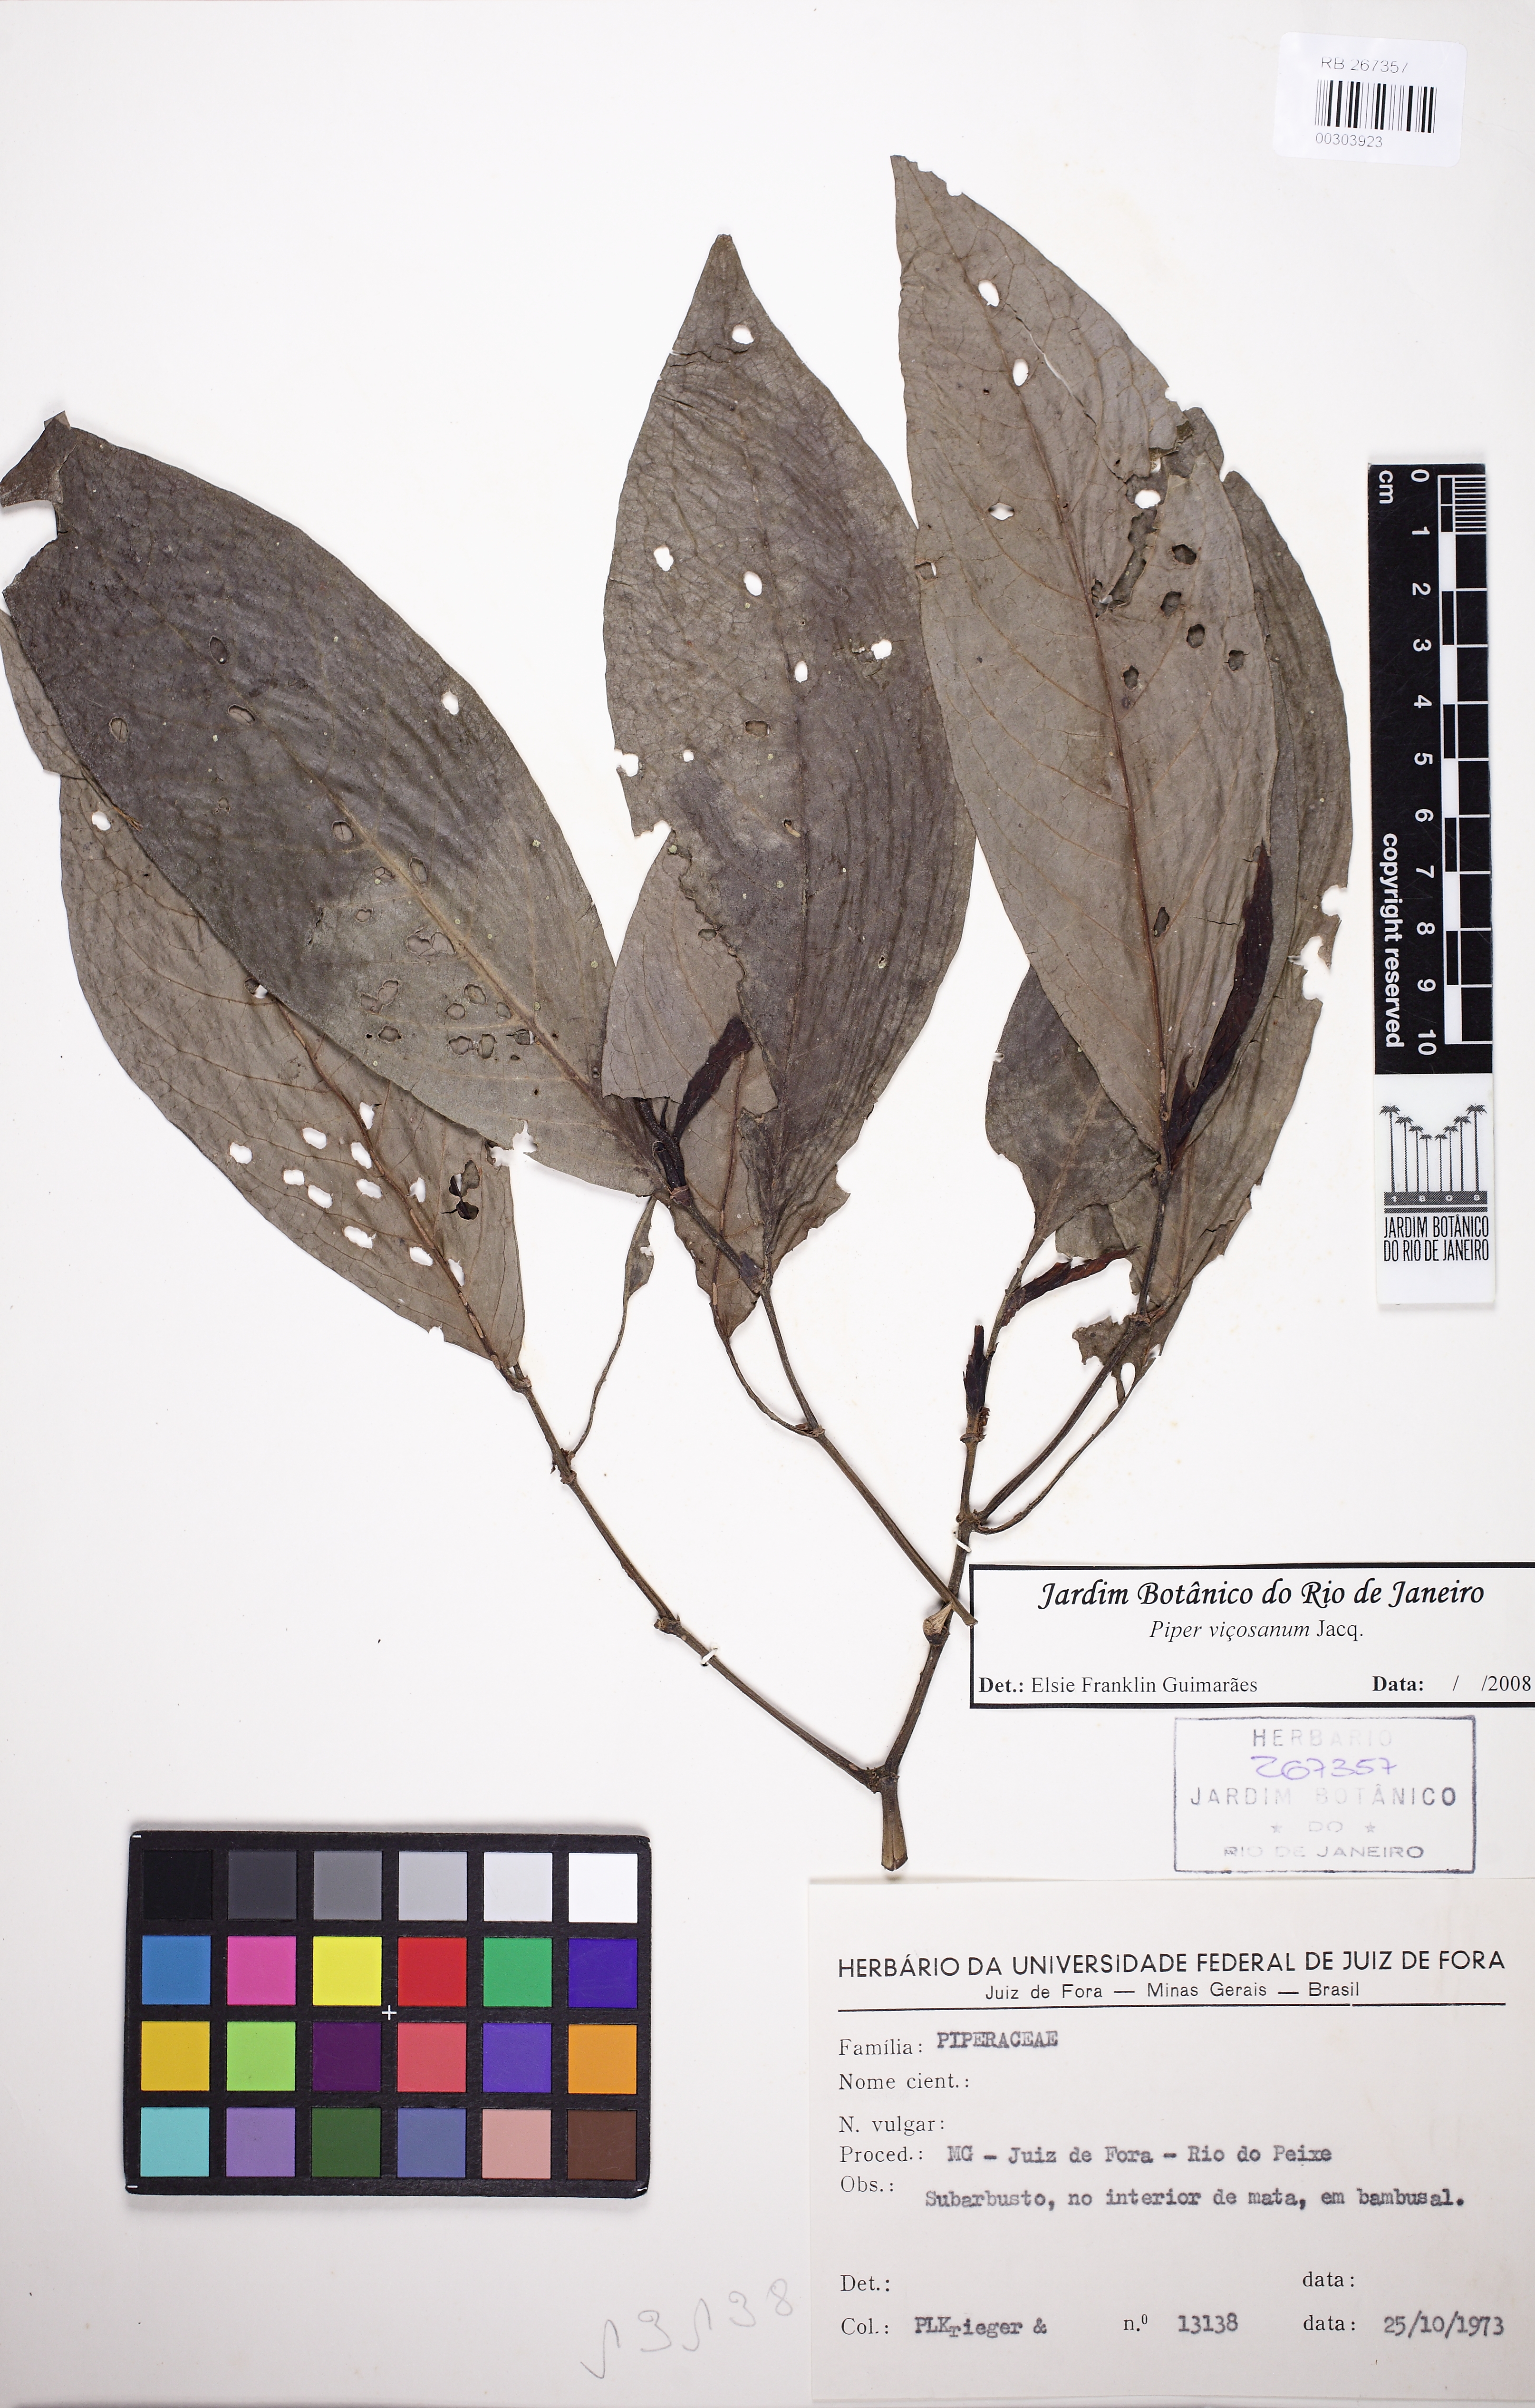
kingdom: Plantae
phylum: Tracheophyta
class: Magnoliopsida
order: Piperales
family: Piperaceae
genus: Piper
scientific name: Piper vicosanum
